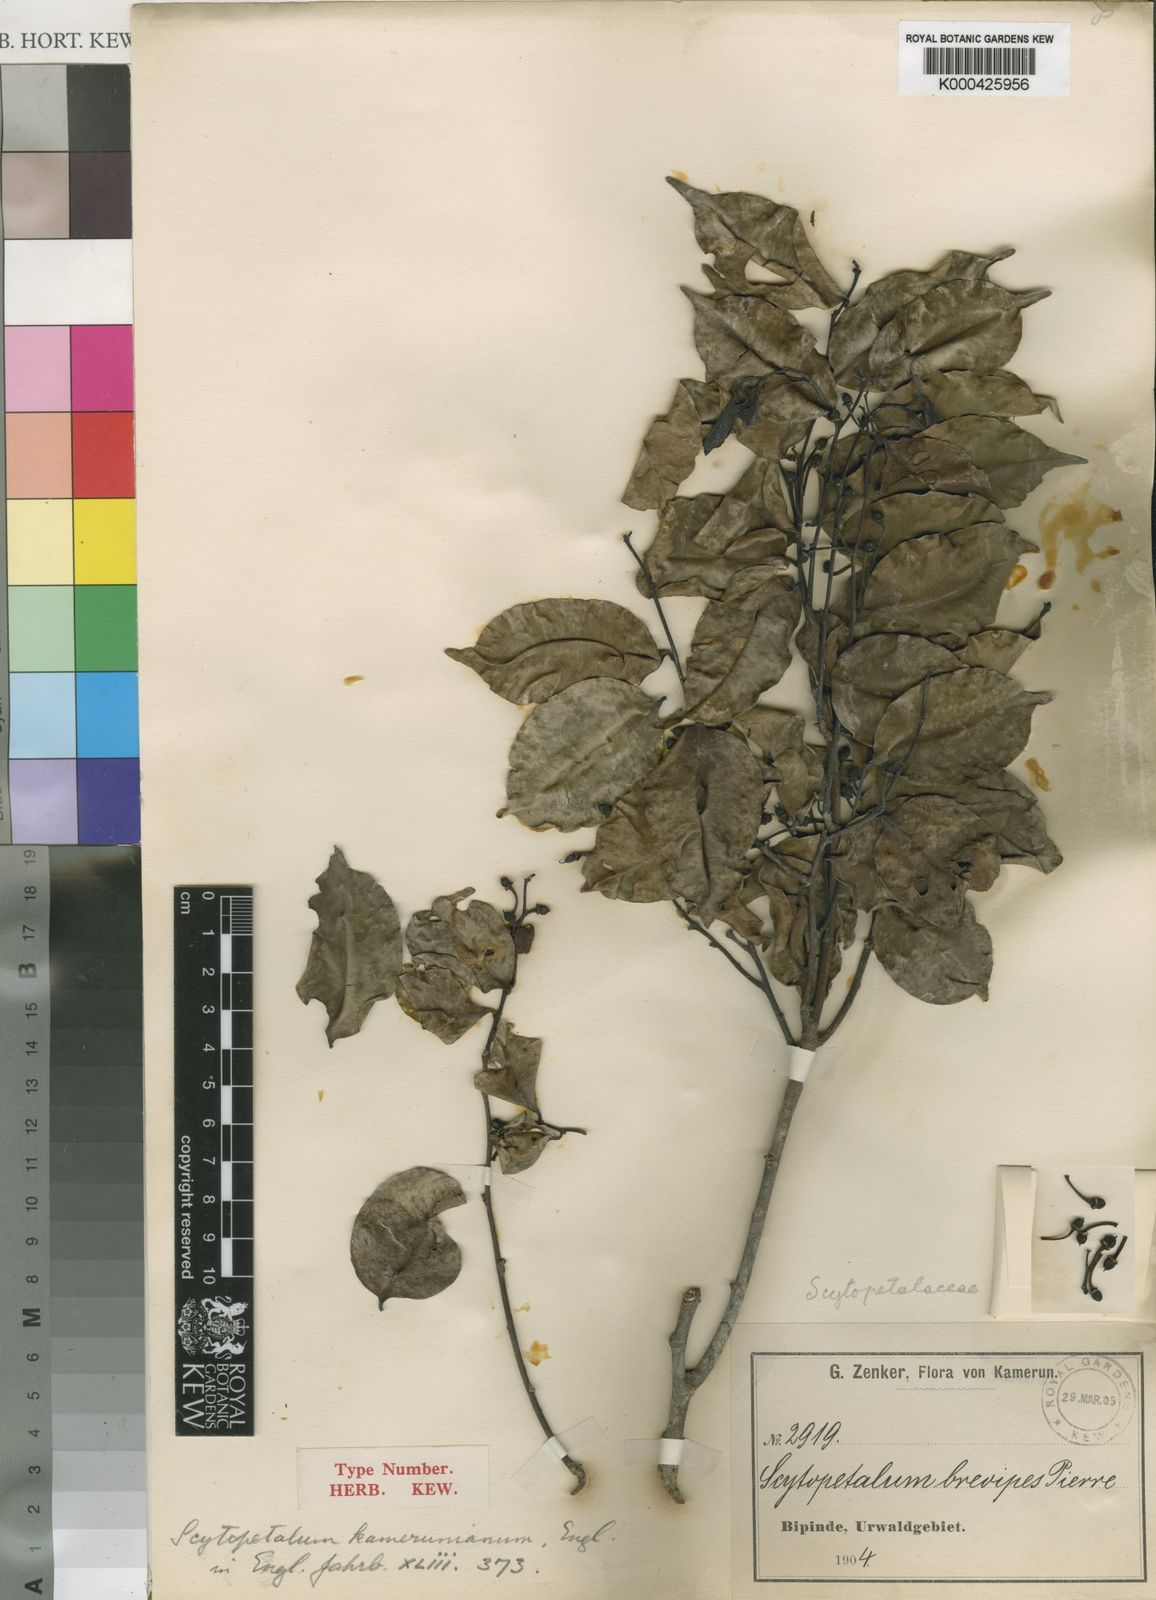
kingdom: Plantae
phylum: Tracheophyta
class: Magnoliopsida
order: Ericales
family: Lecythidaceae
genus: Scytopetalum
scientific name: Scytopetalum klaineanum
